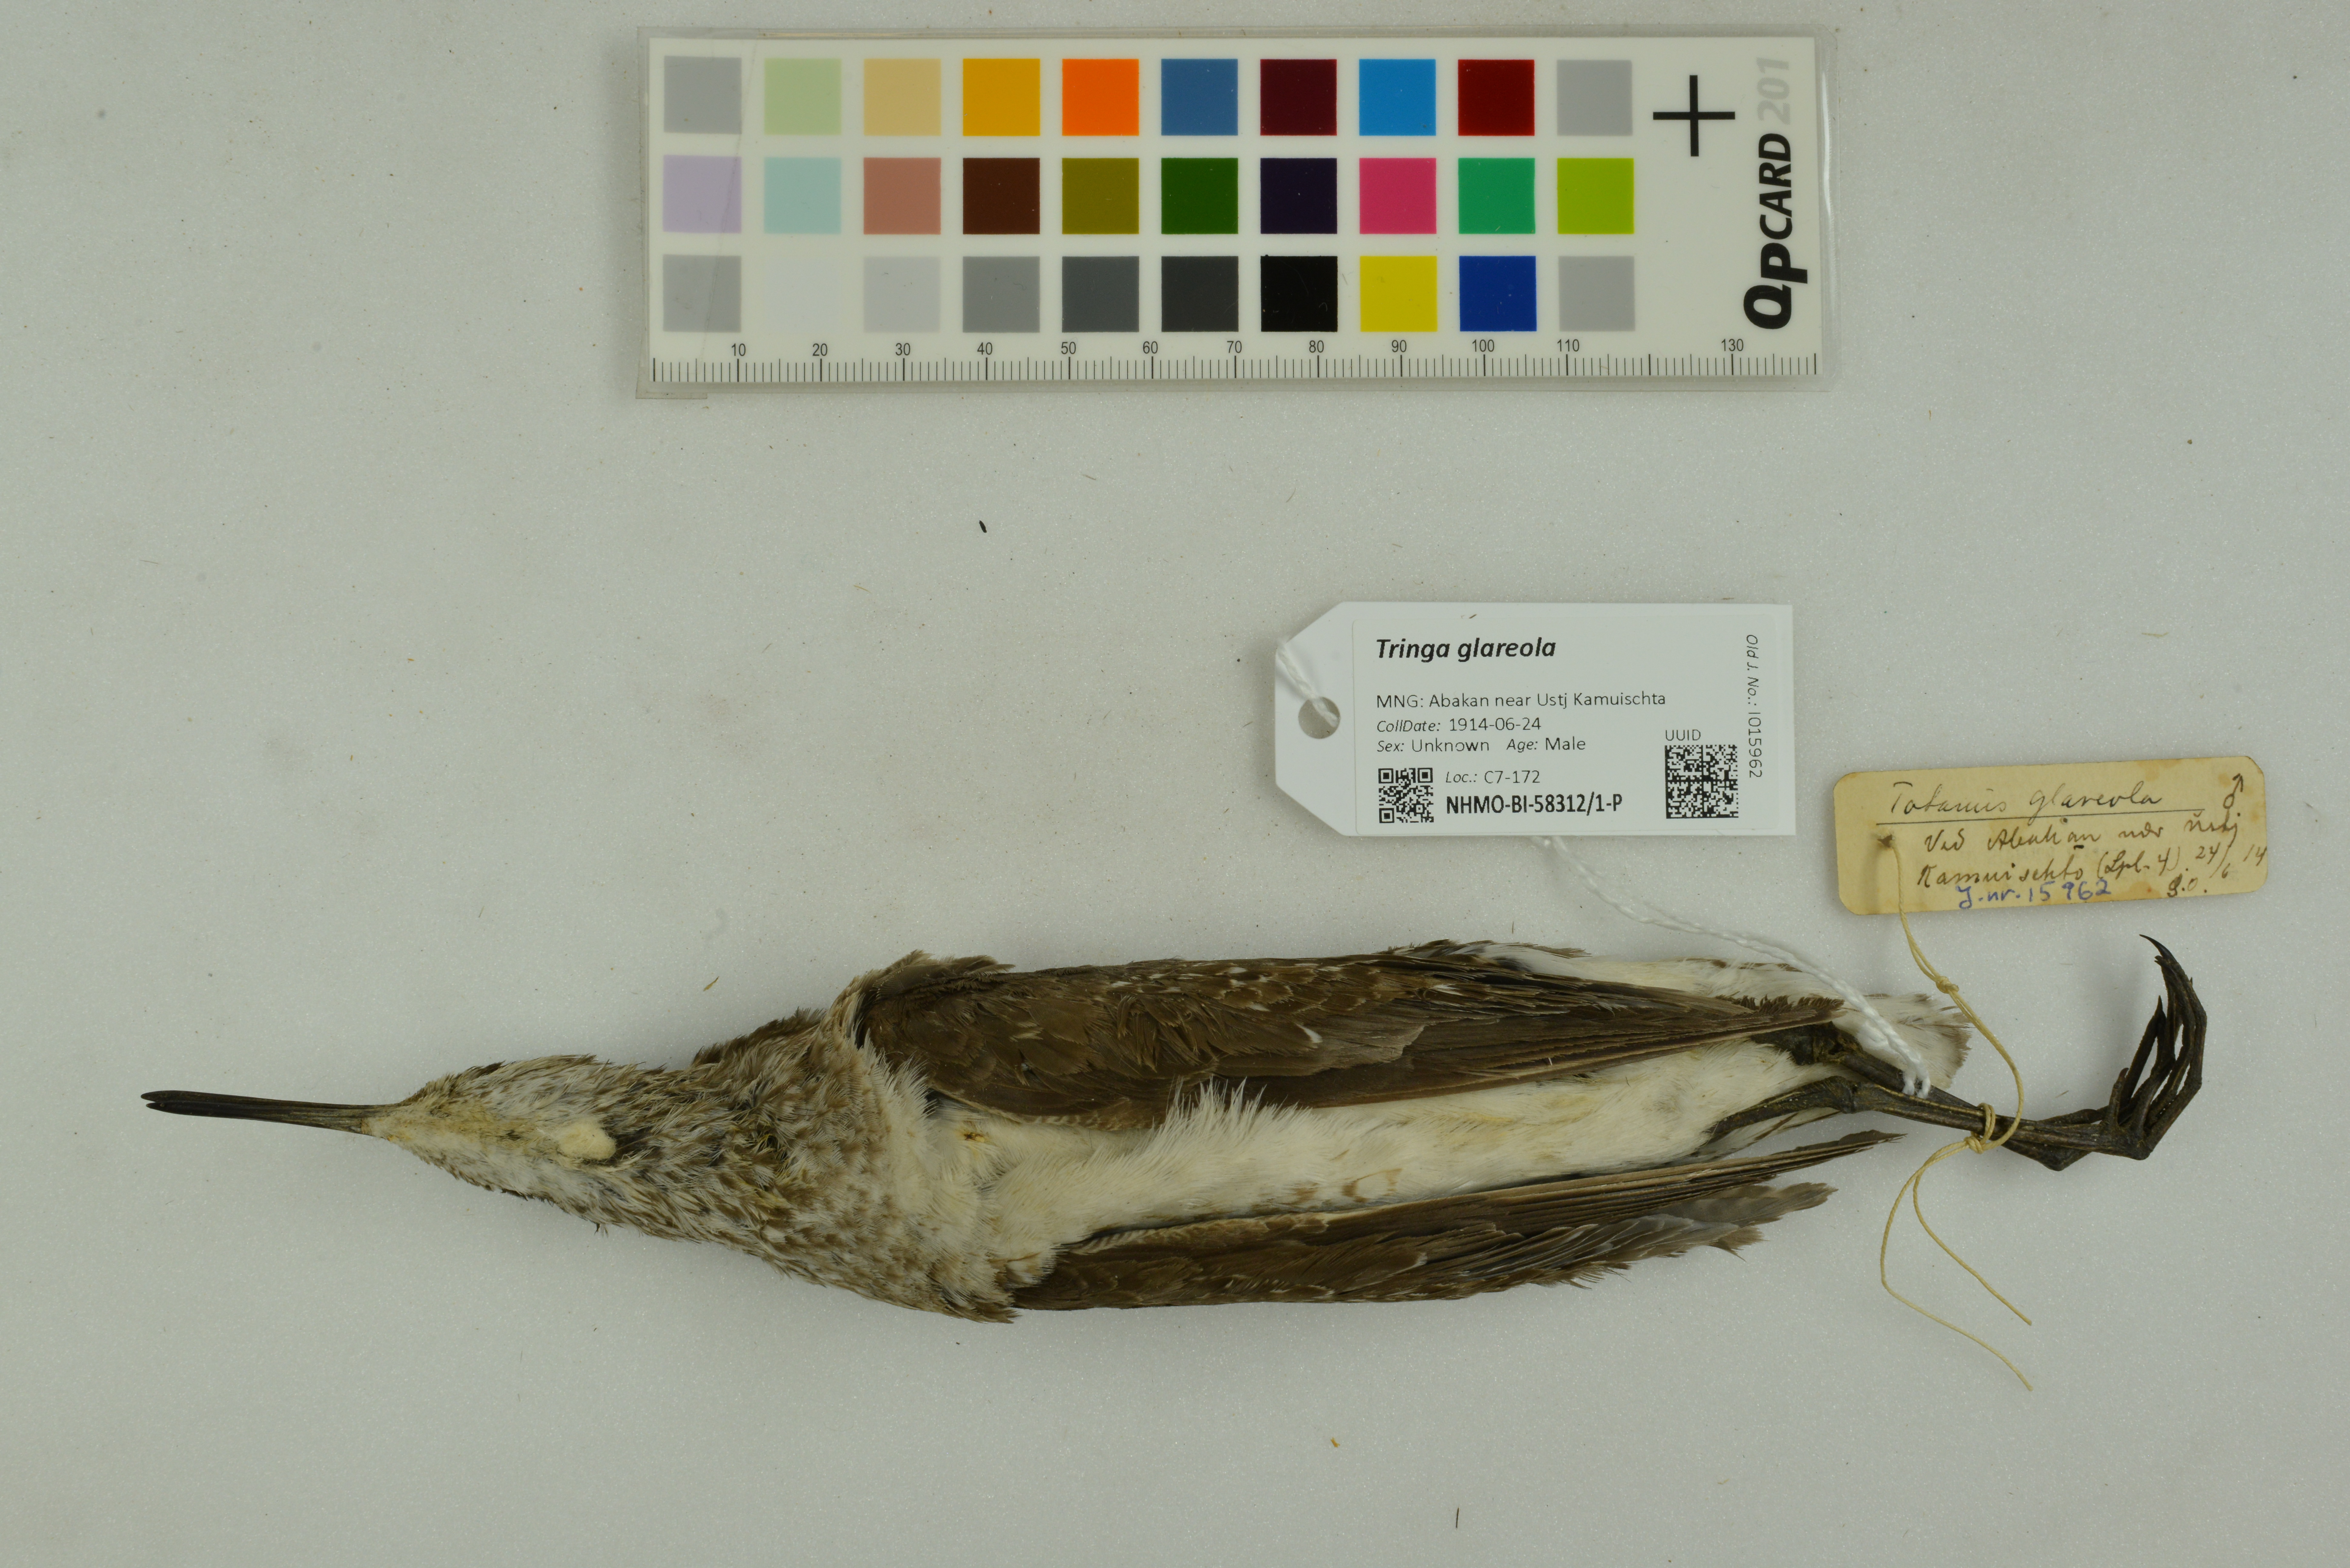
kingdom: Animalia
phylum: Chordata
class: Aves
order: Charadriiformes
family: Scolopacidae
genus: Tringa
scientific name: Tringa glareola
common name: Wood sandpiper
